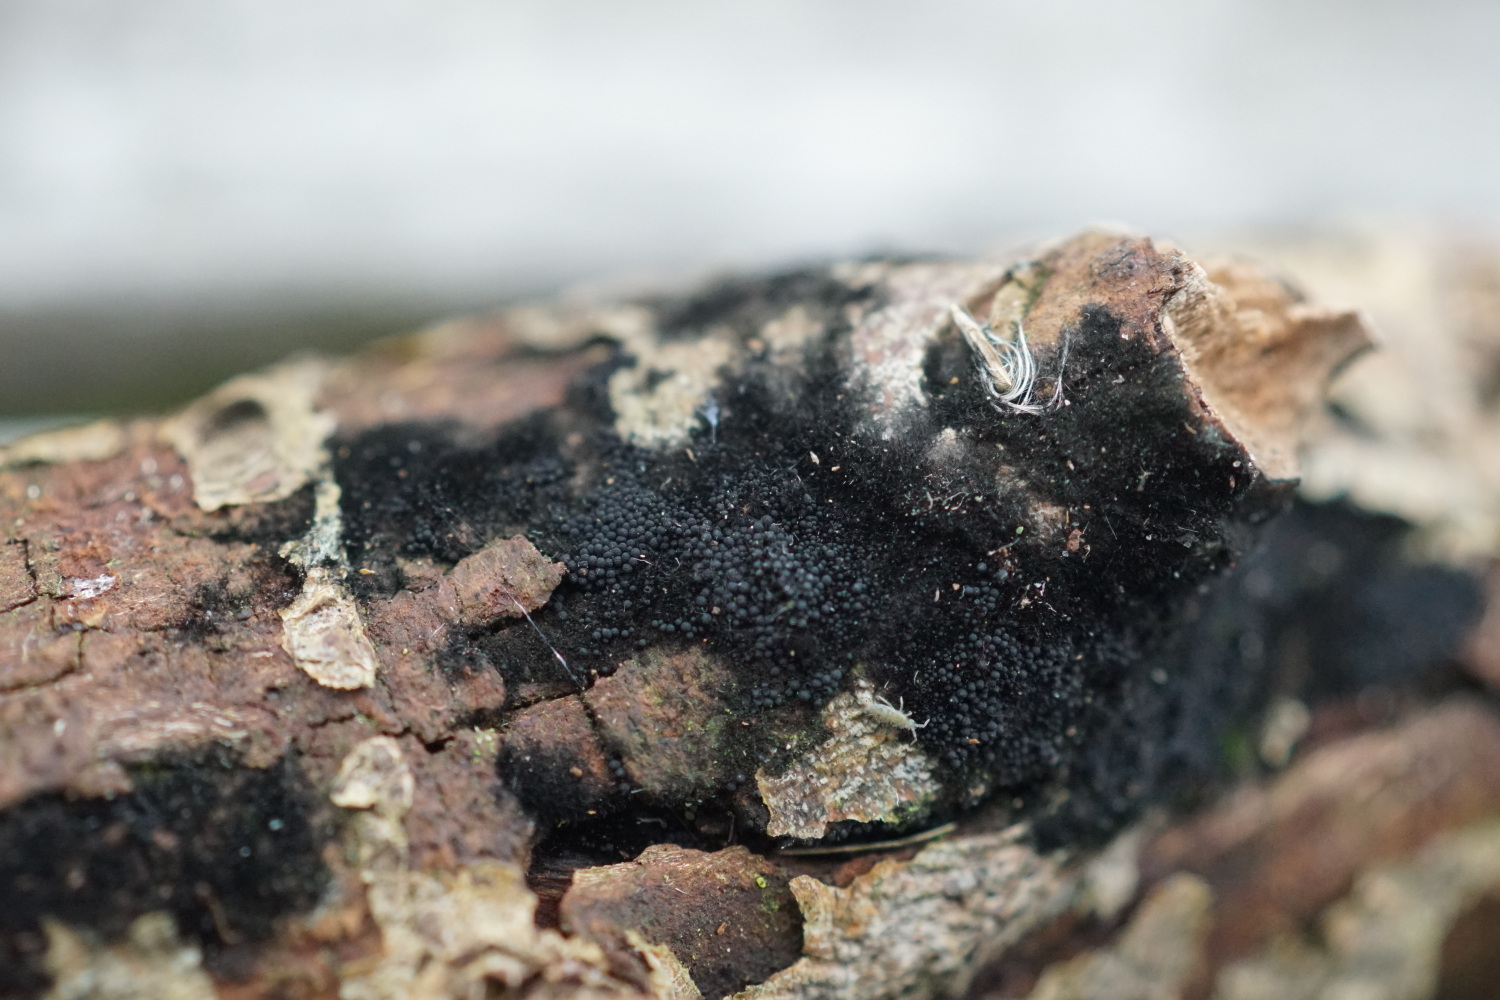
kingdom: Fungi
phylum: Ascomycota
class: Sordariomycetes
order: Coronophorales
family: Chaetosphaerellaceae
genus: Chaetosphaerella
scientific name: Chaetosphaerella phaeostroma
